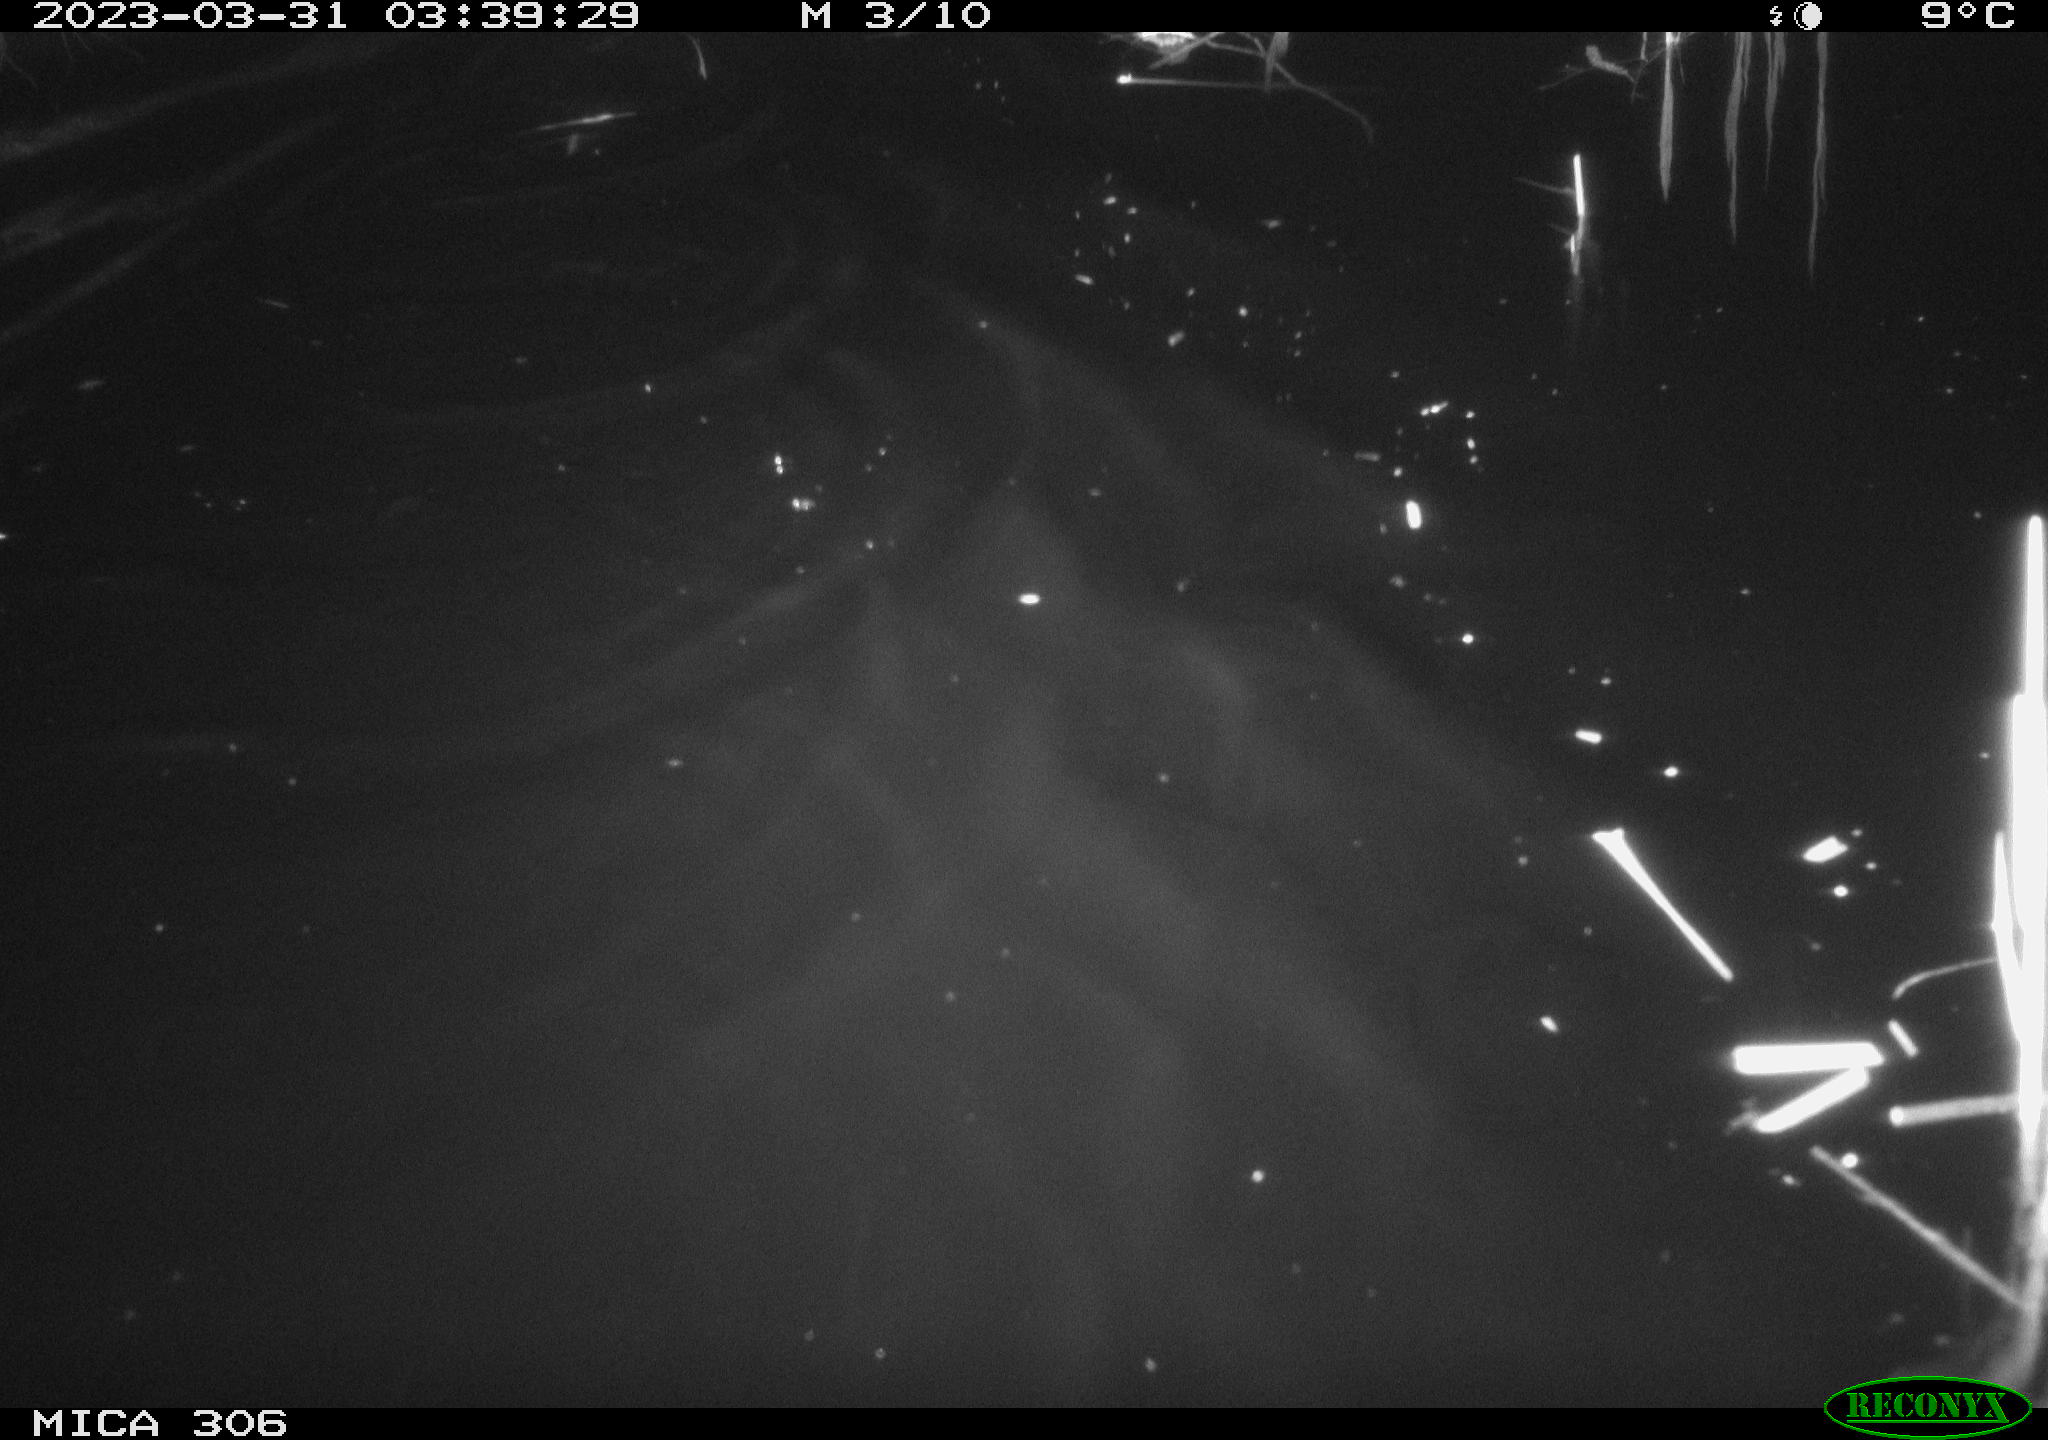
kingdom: Animalia
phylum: Chordata
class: Mammalia
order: Rodentia
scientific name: Rodentia
